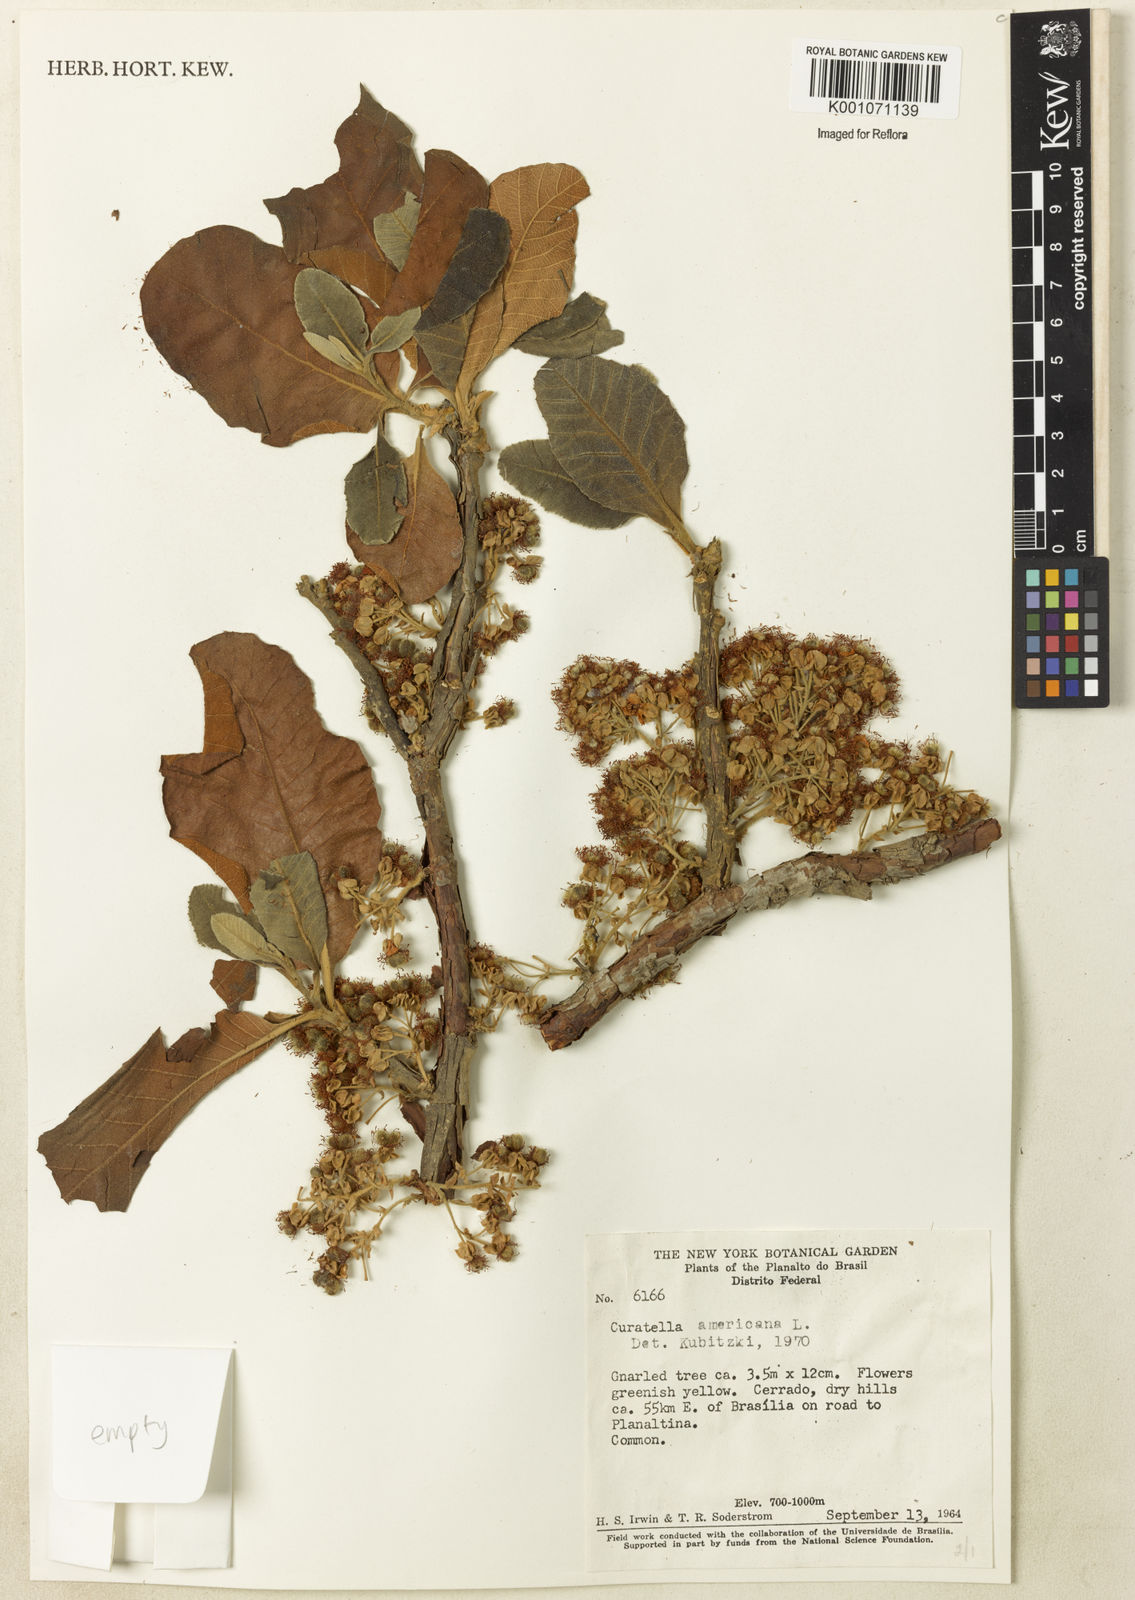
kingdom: Plantae
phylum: Tracheophyta
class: Magnoliopsida
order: Dilleniales
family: Dilleniaceae
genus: Curatella
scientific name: Curatella americana
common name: Sandpaper tree
